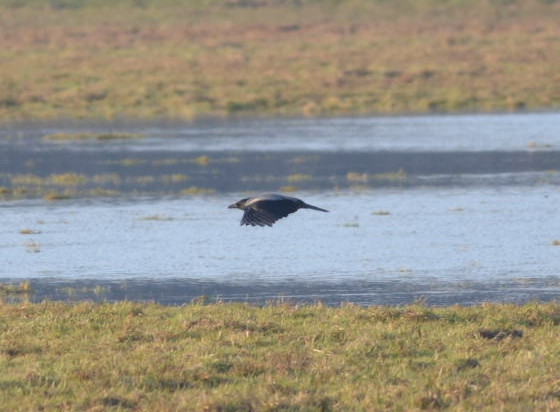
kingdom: Animalia
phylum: Chordata
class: Aves
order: Passeriformes
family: Corvidae
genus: Corvus
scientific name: Corvus cornix
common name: Hooded crow
